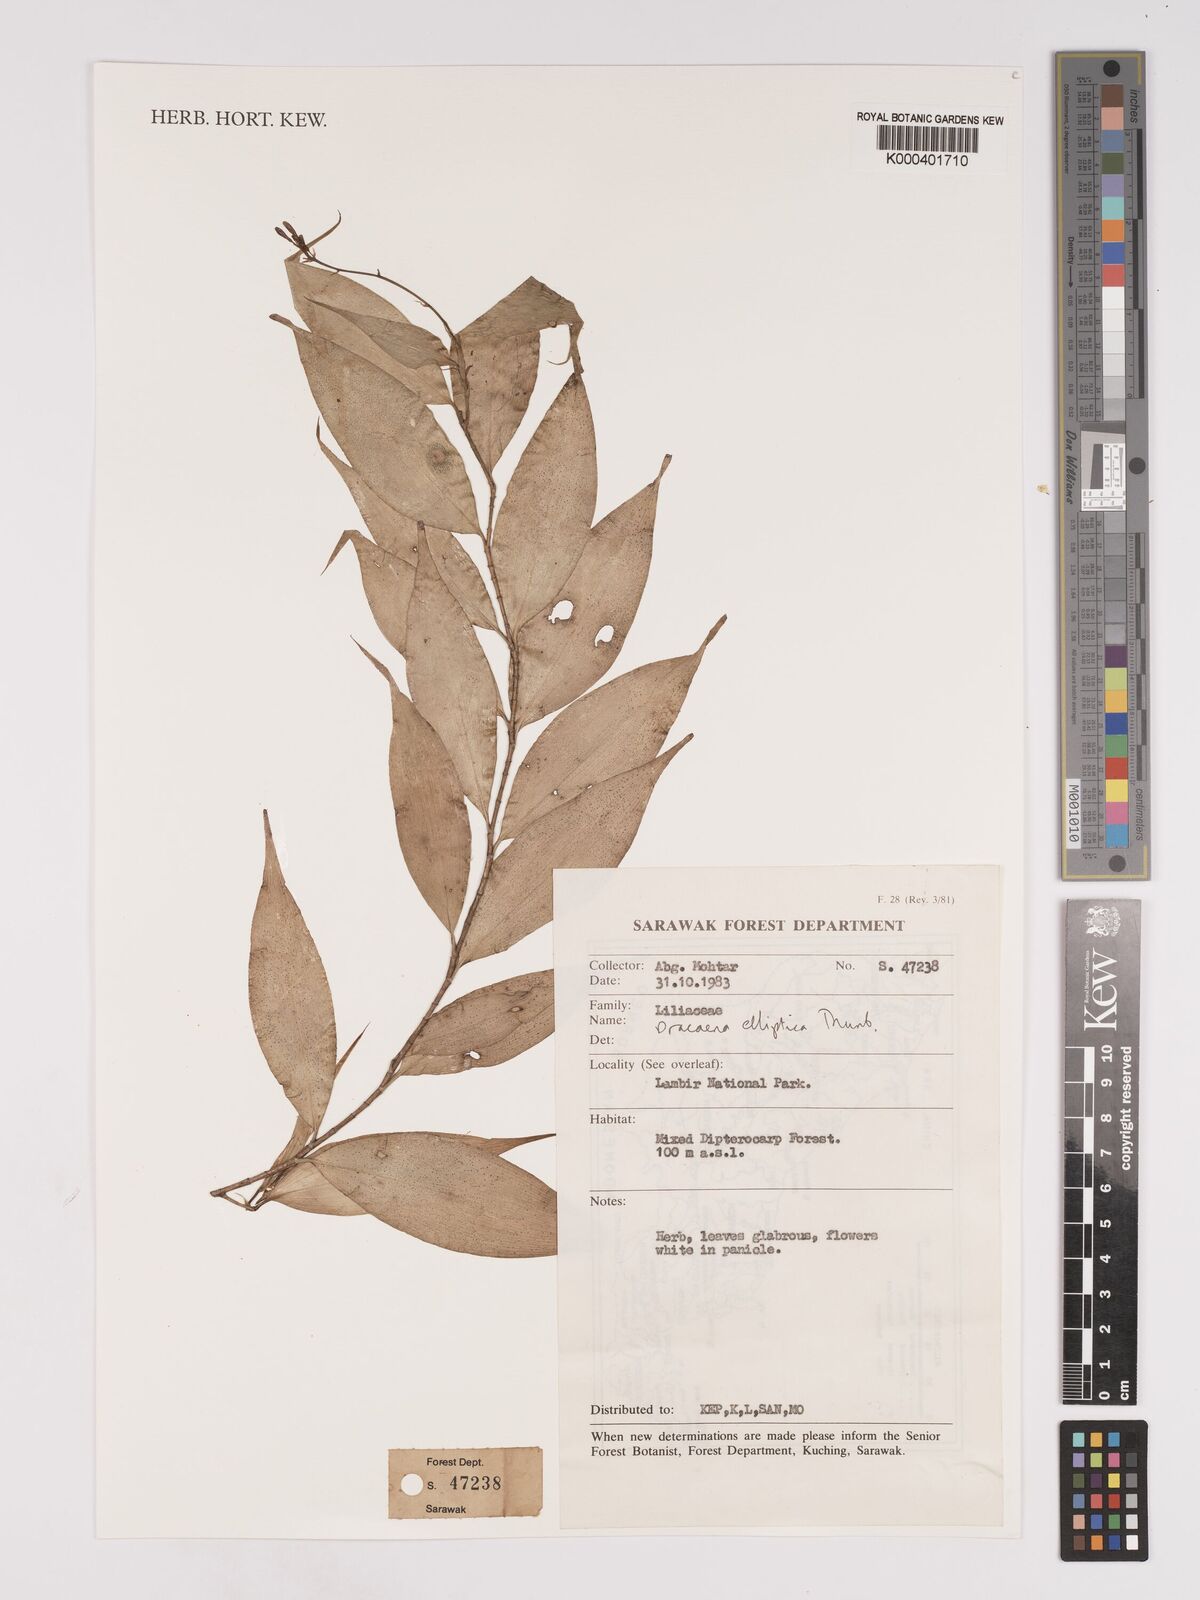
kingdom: Plantae
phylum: Tracheophyta
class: Liliopsida
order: Asparagales
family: Asparagaceae
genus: Dracaena
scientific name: Dracaena elliptica
